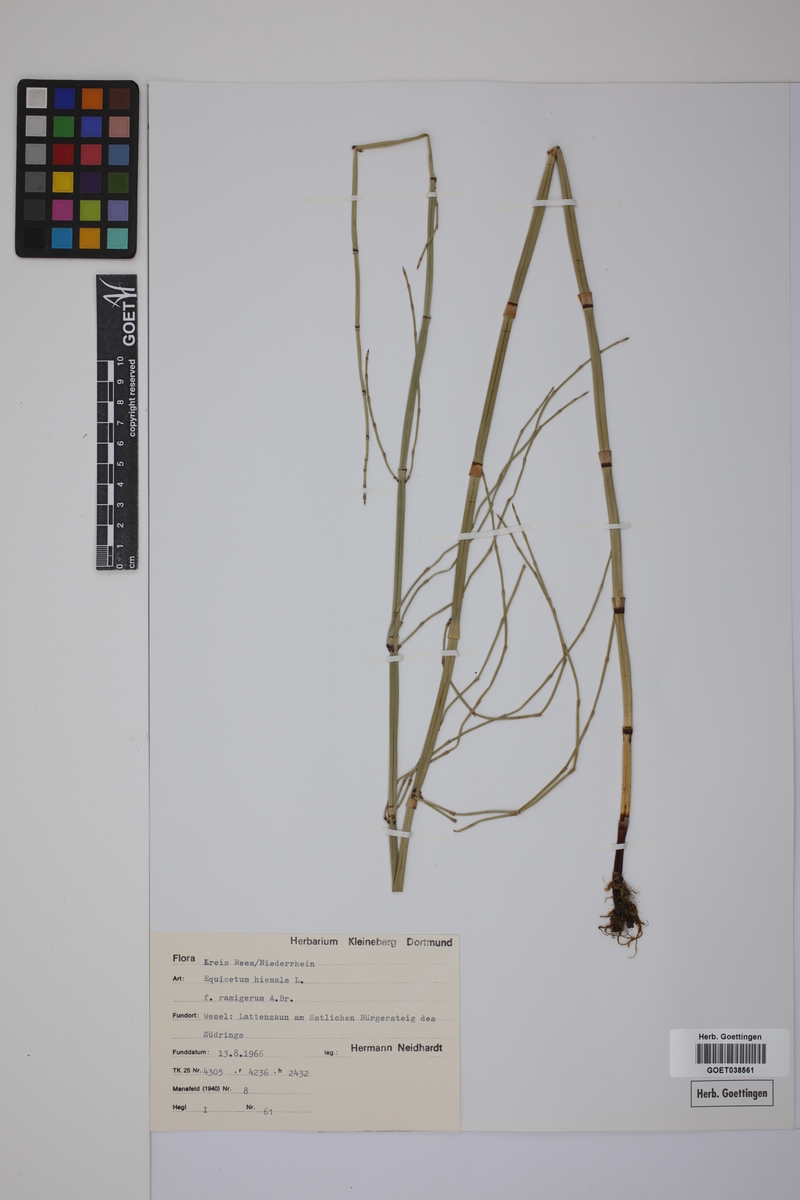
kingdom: Plantae
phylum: Tracheophyta
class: Polypodiopsida
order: Equisetales
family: Equisetaceae
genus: Equisetum
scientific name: Equisetum hyemale
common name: Rough horsetail
